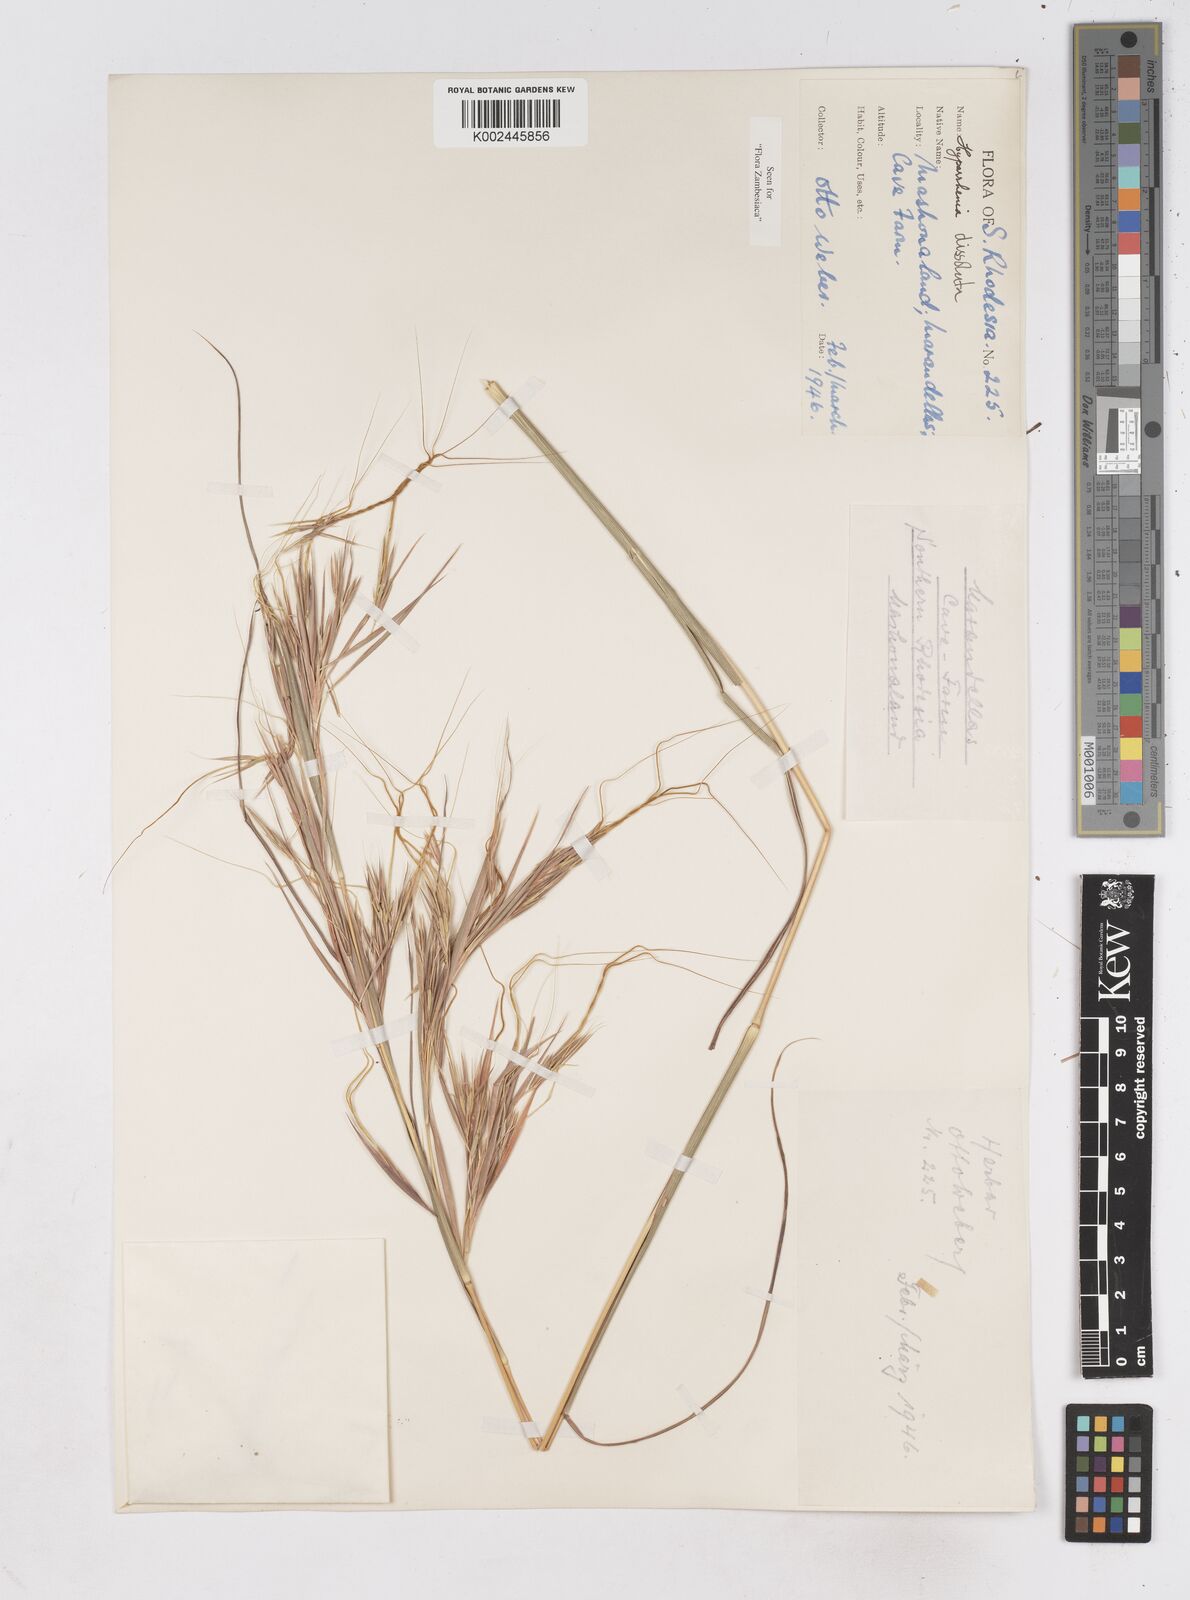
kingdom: Plantae
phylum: Tracheophyta
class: Liliopsida
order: Poales
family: Poaceae
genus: Hyperthelia
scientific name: Hyperthelia dissoluta
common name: Yellow thatching grass
